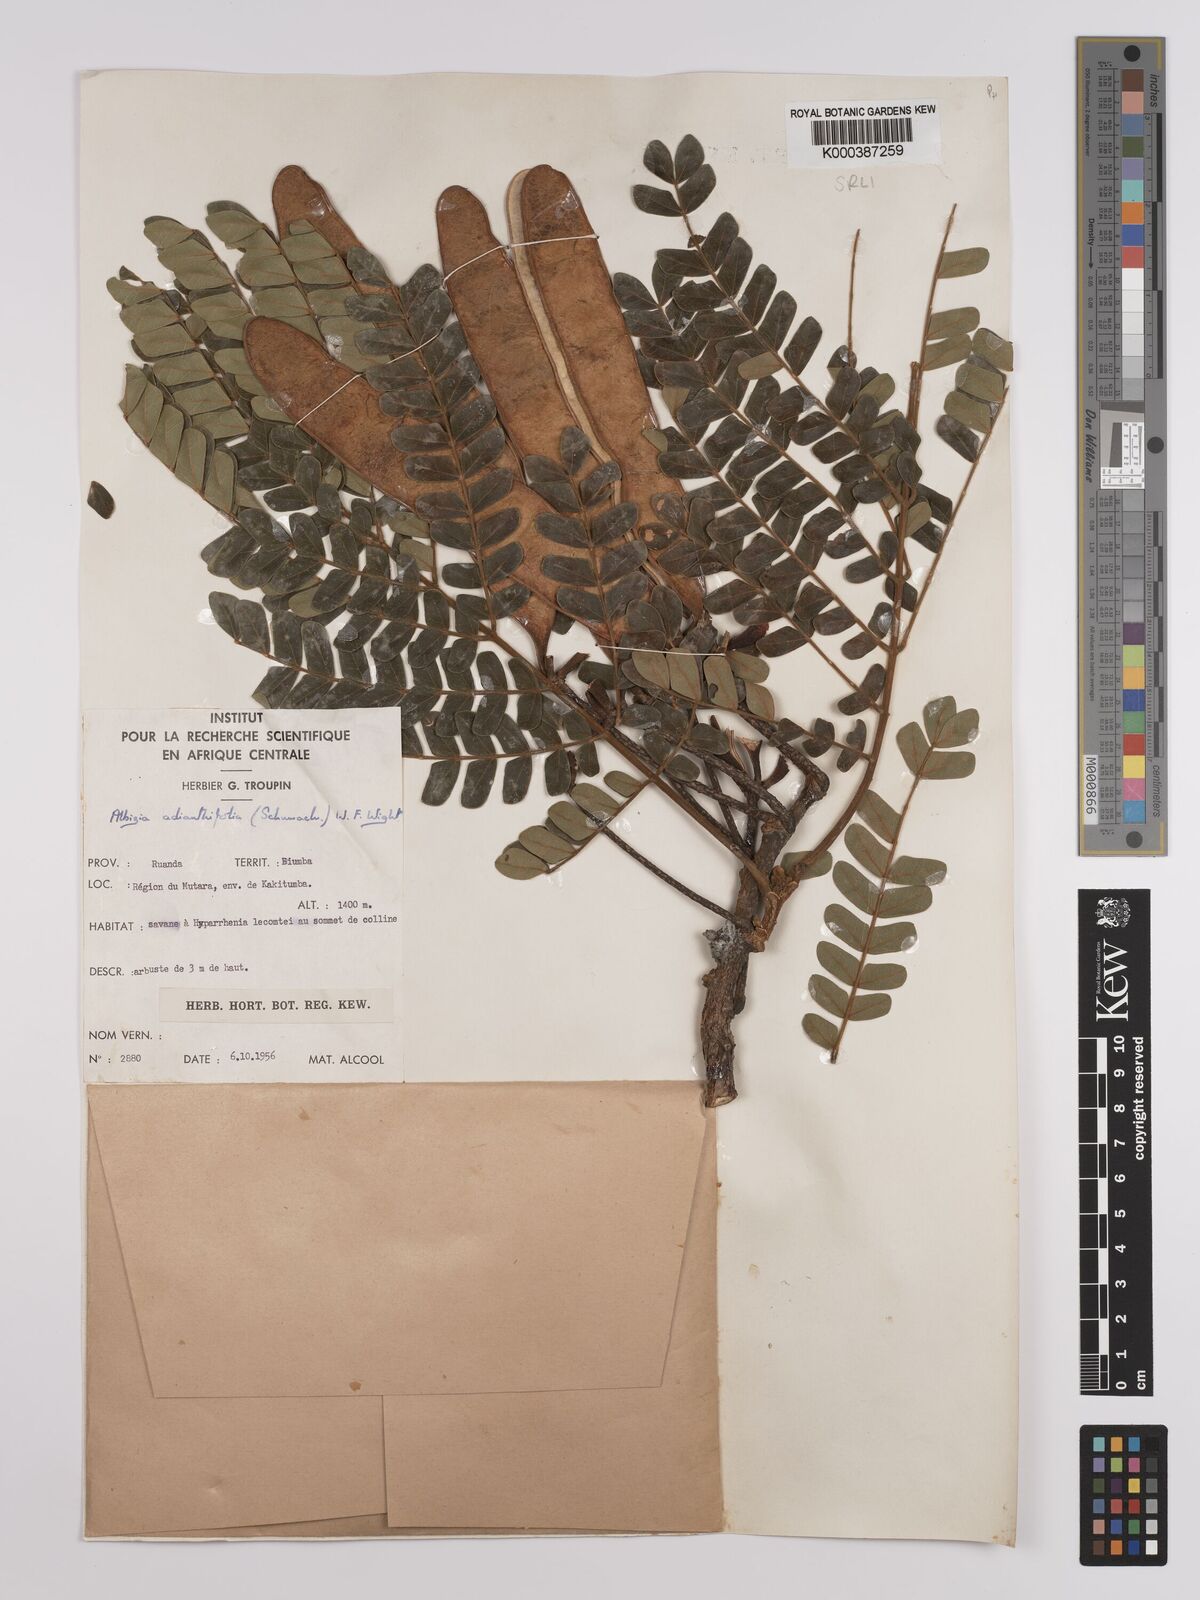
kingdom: Plantae
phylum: Tracheophyta
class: Magnoliopsida
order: Fabales
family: Fabaceae
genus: Albizia
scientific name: Albizia adianthifolia
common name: West african albizia
